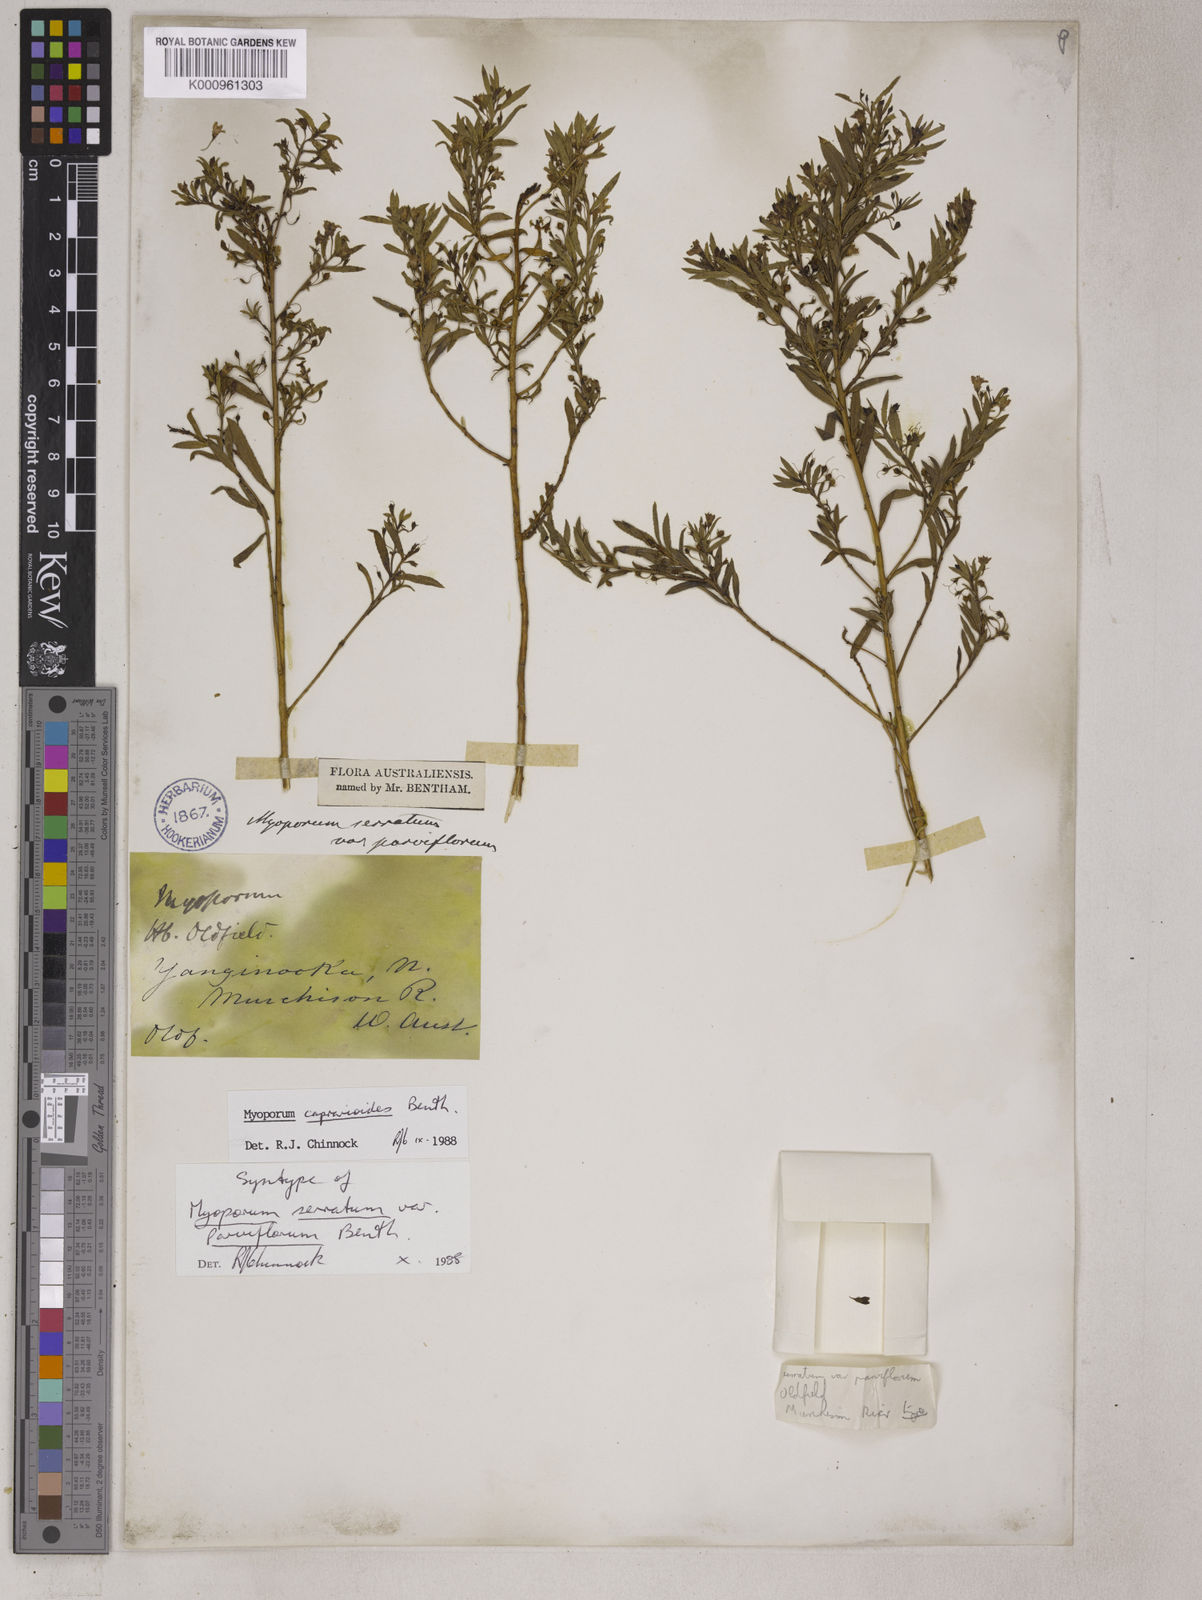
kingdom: Plantae
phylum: Tracheophyta
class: Magnoliopsida
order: Lamiales
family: Scrophulariaceae
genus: Myoporum
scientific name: Myoporum caprarioides
